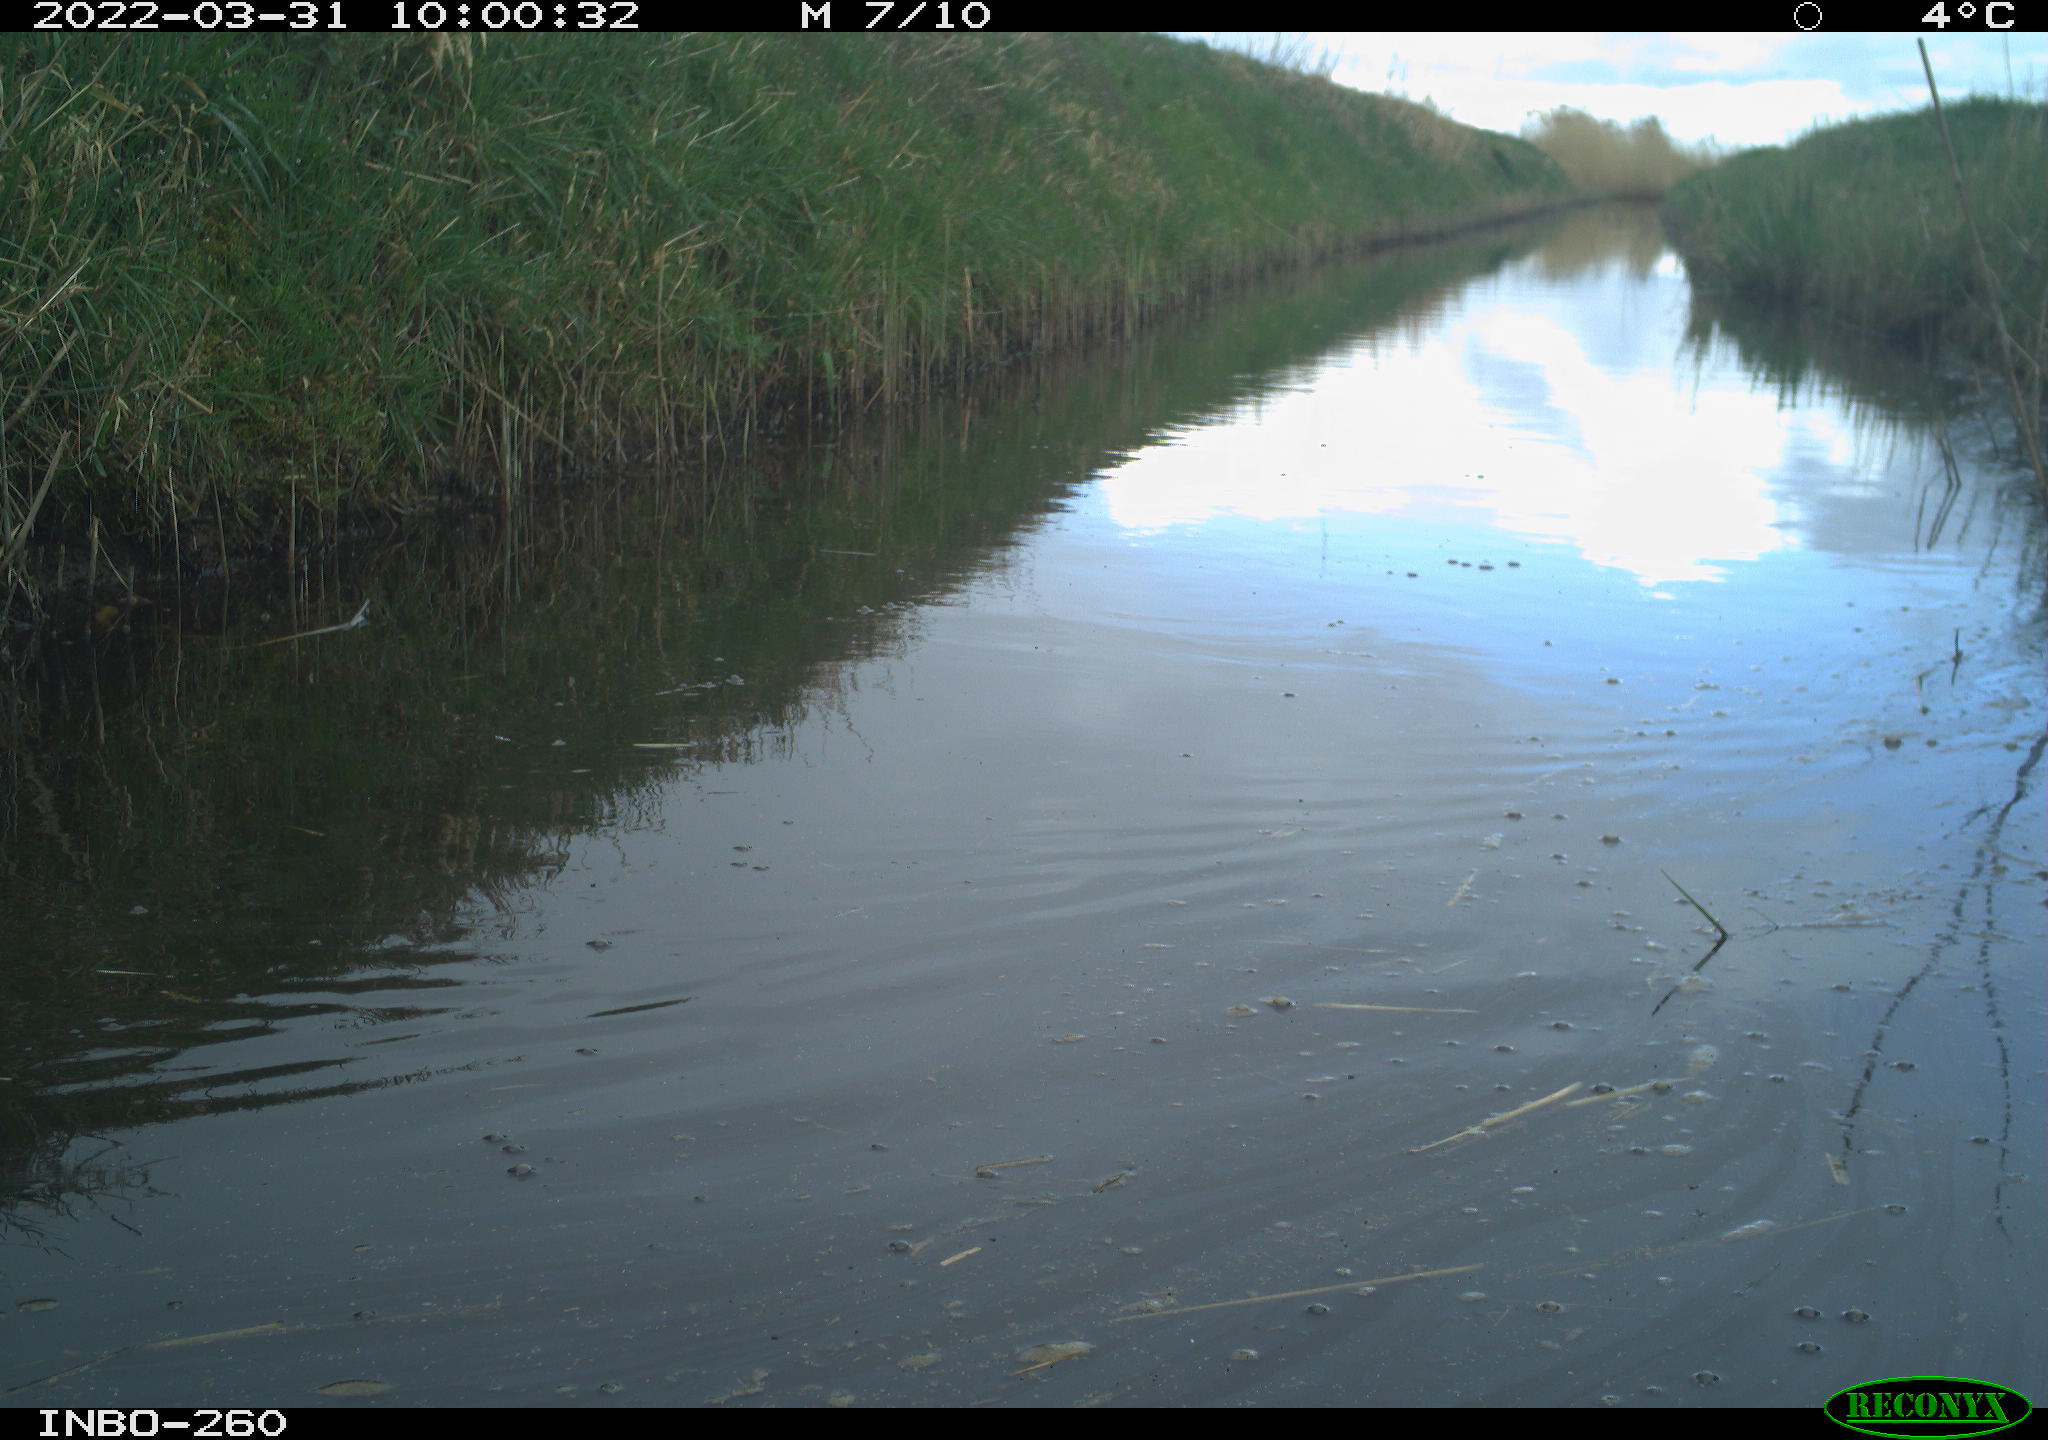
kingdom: Animalia
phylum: Chordata
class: Aves
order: Gruiformes
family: Rallidae
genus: Fulica
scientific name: Fulica atra
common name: Eurasian coot
